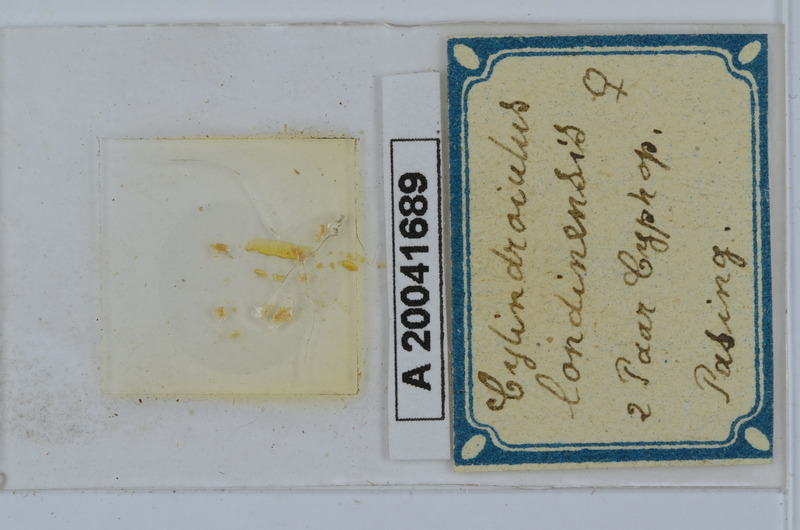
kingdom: Animalia
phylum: Arthropoda
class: Diplopoda
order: Julida
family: Julidae
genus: Cylindroiulus
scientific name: Cylindroiulus londinensis
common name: Black millipede
